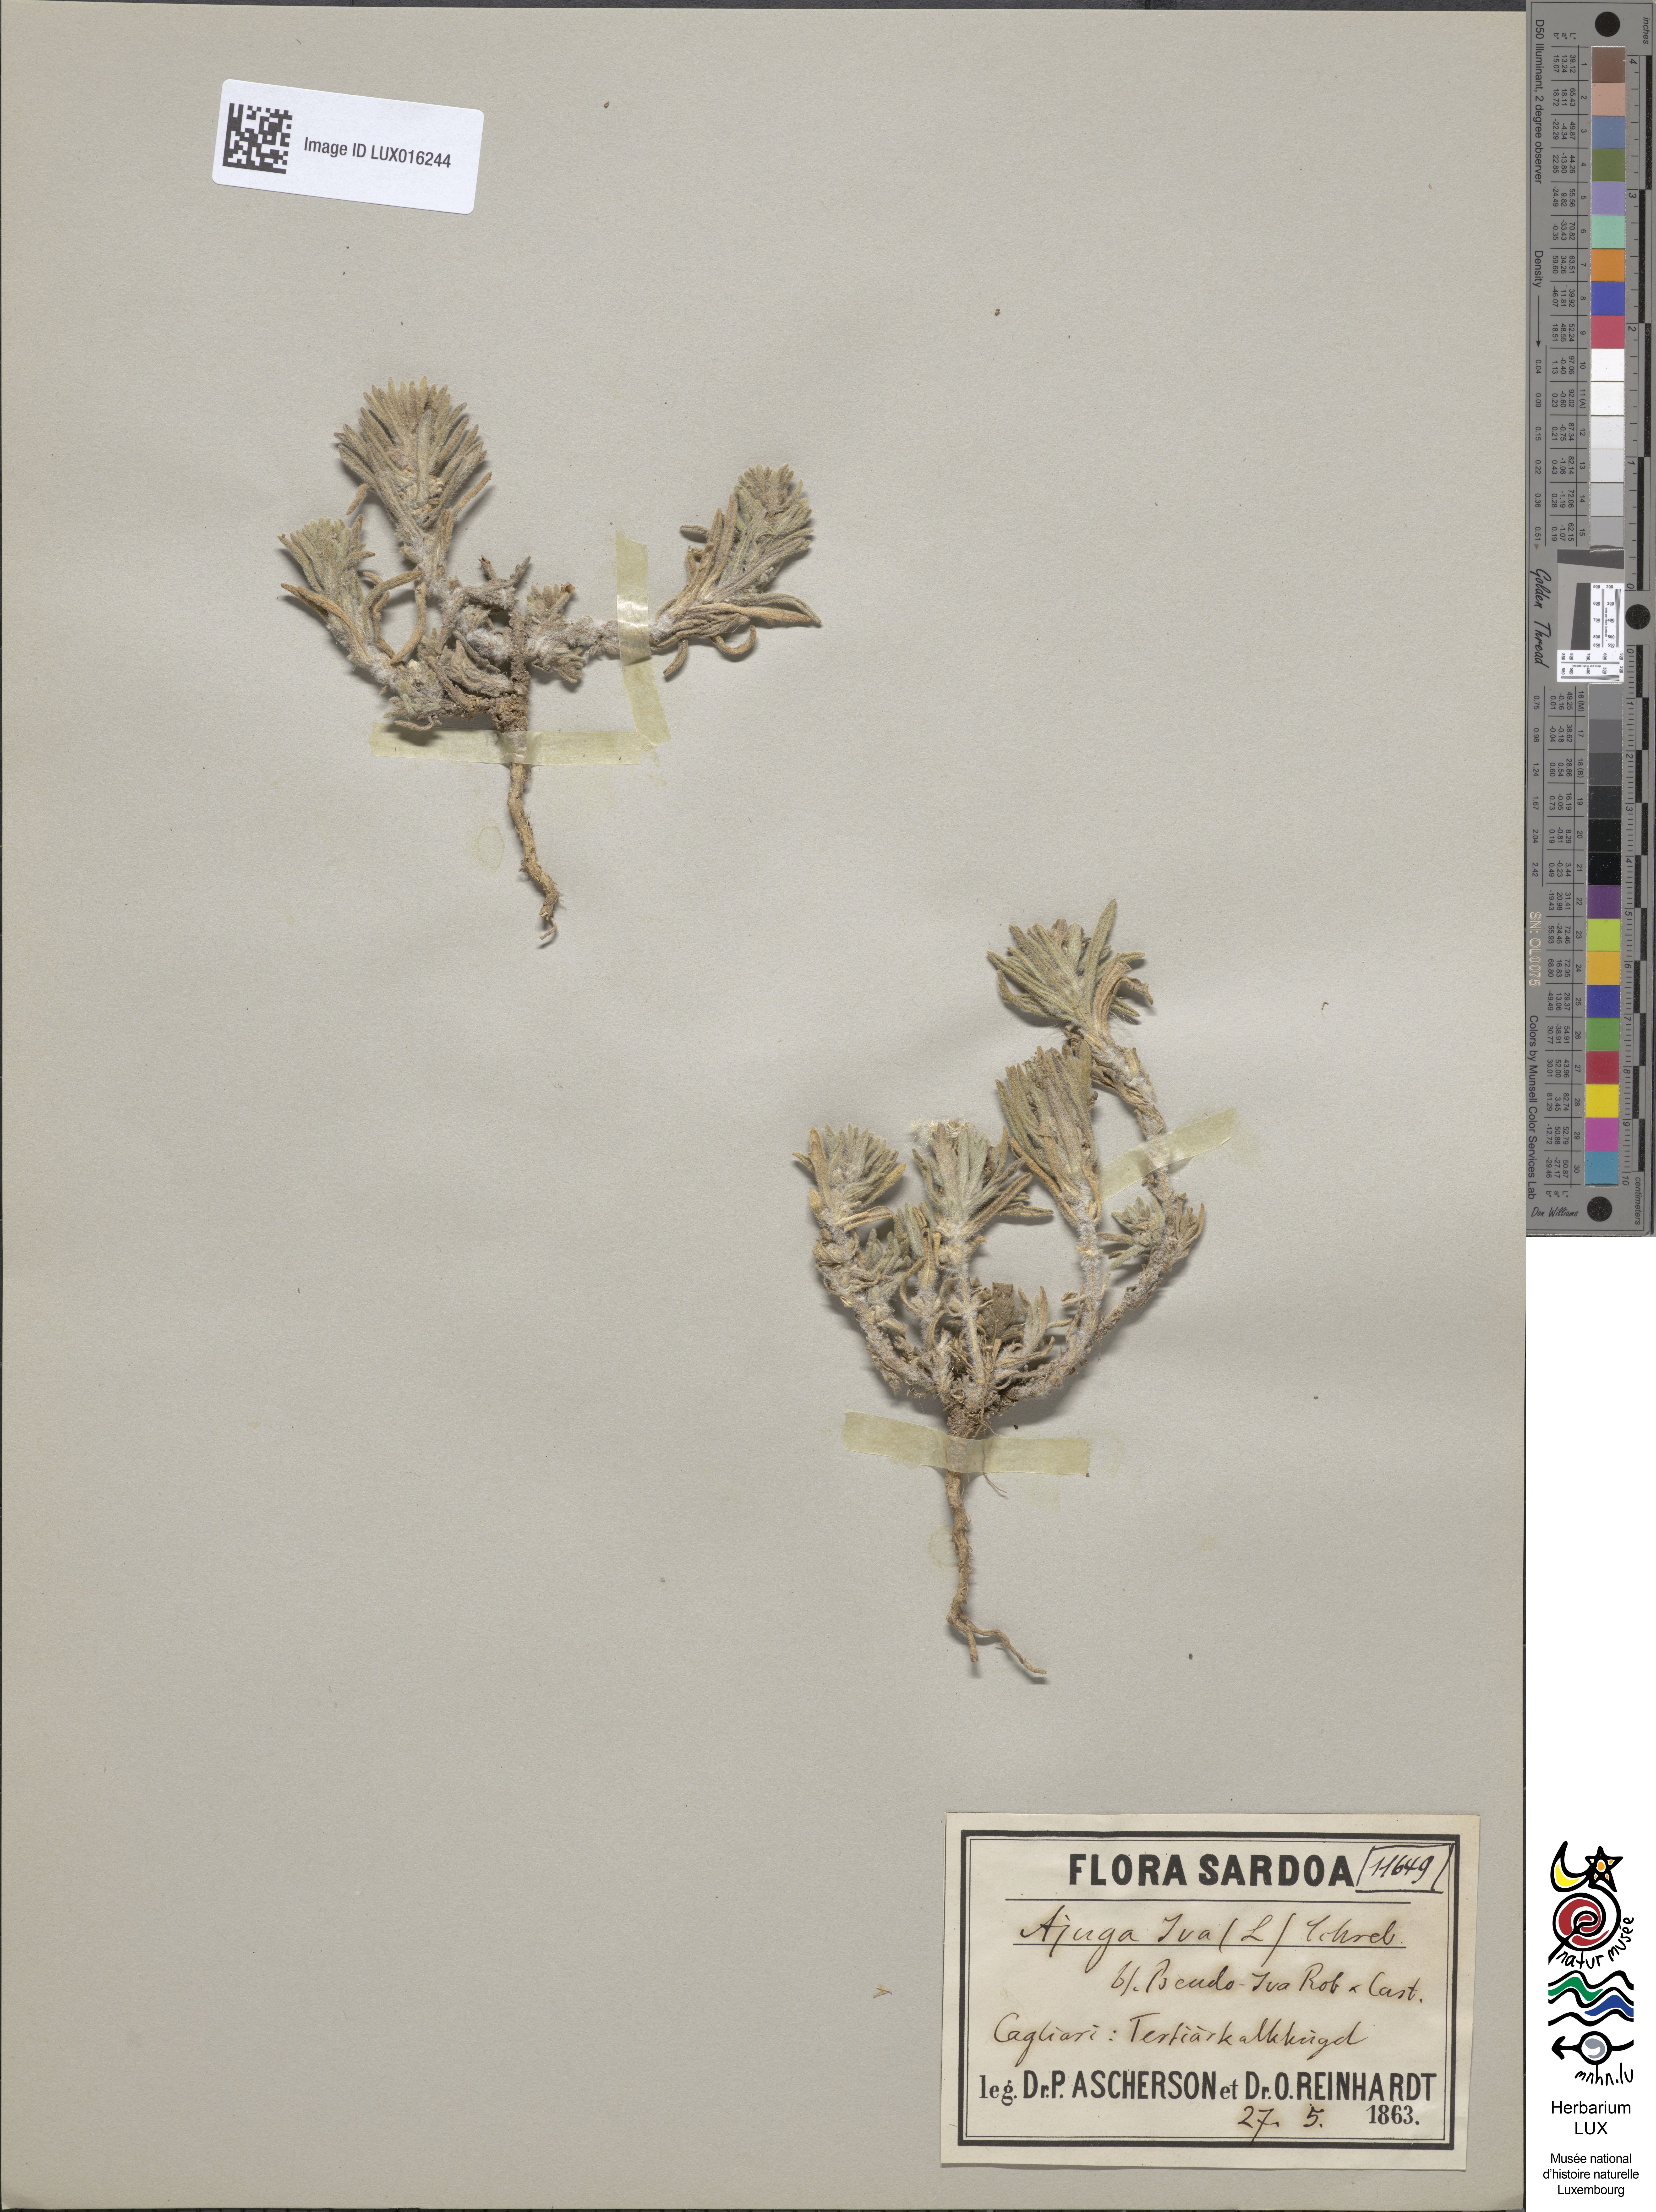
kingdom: Plantae
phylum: Tracheophyta
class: Magnoliopsida
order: Lamiales
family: Lamiaceae
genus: Ajuga
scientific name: Ajuga iva
